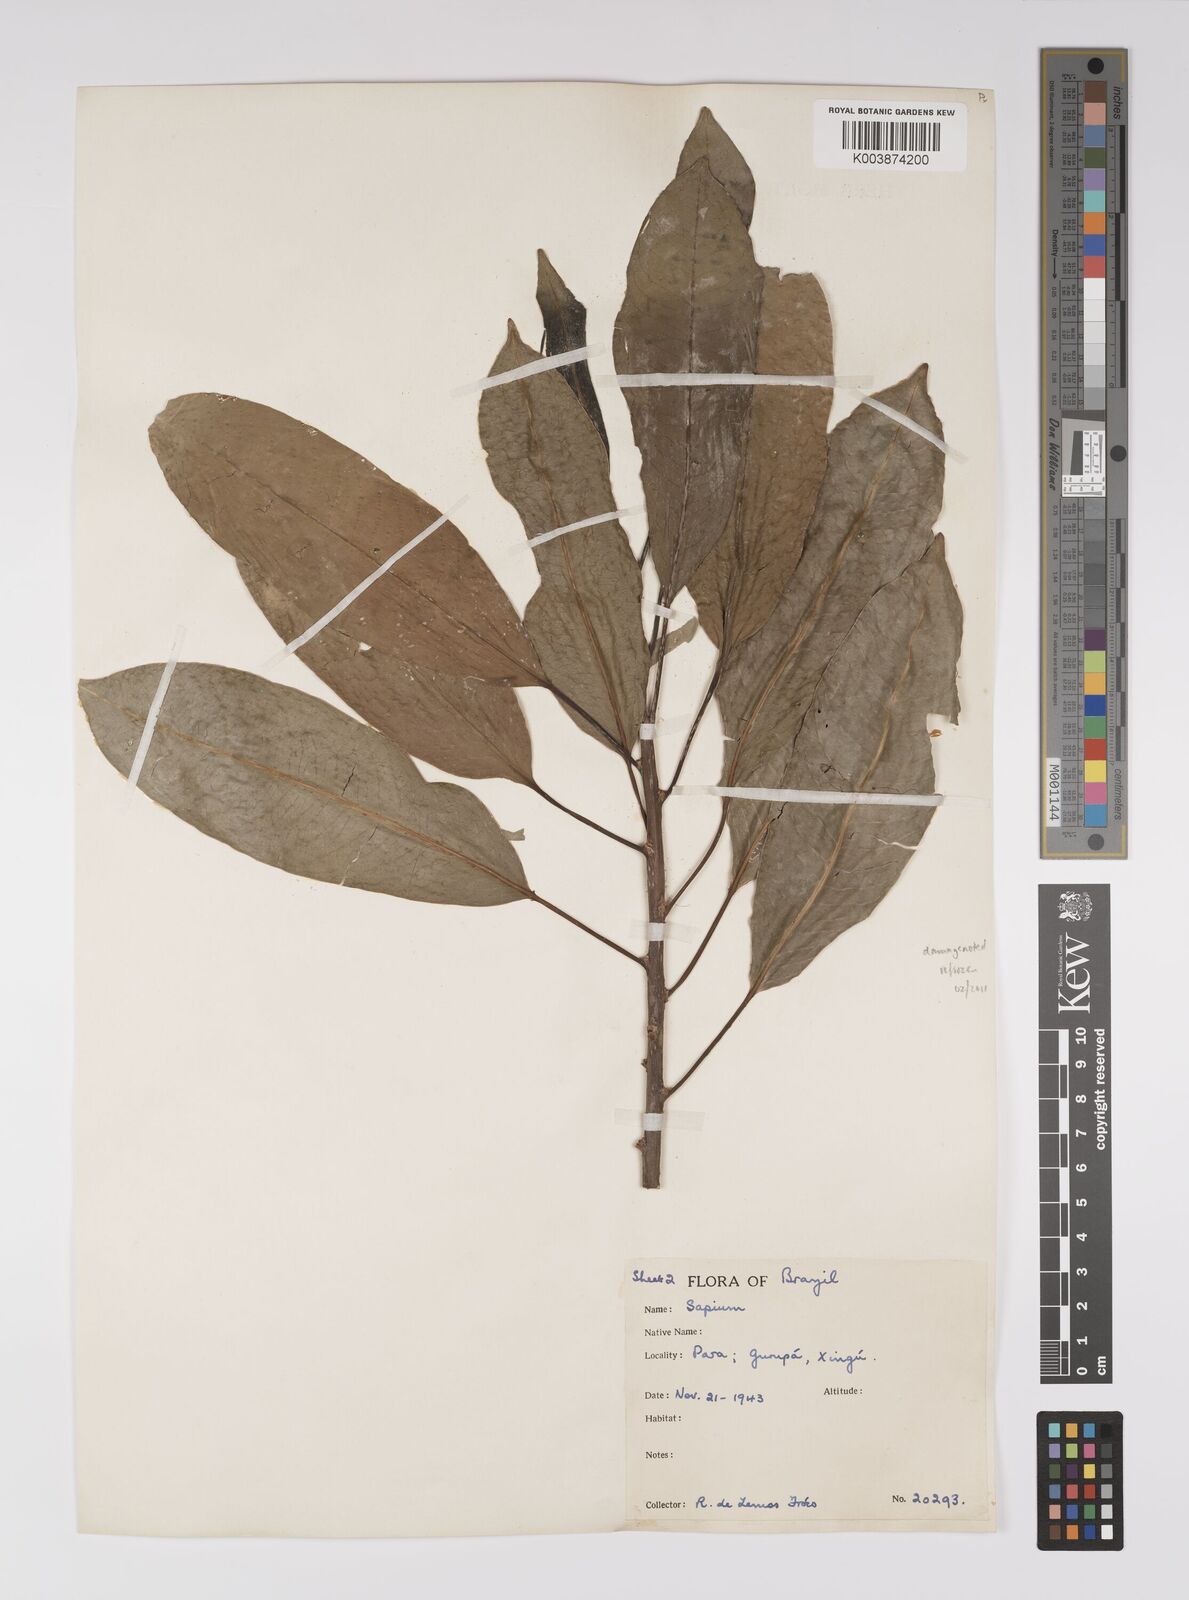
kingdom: Plantae
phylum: Tracheophyta
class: Magnoliopsida
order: Malpighiales
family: Euphorbiaceae
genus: Sapium
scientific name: Sapium
